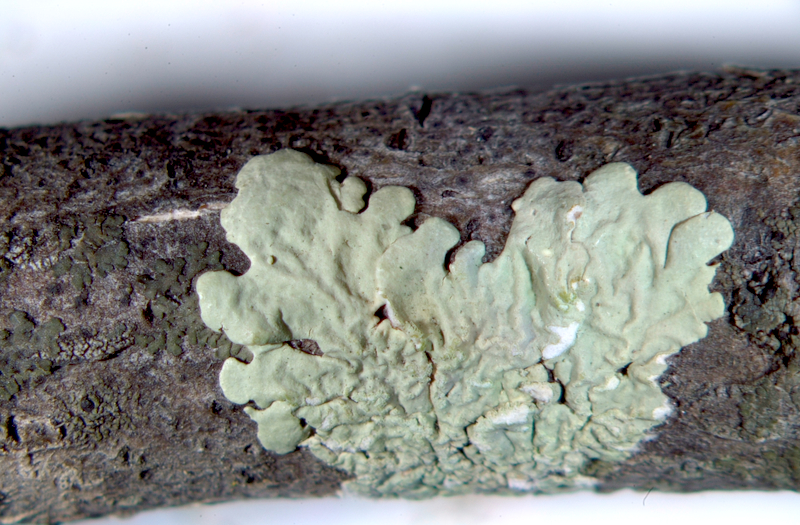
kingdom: Fungi
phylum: Ascomycota
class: Lecanoromycetes
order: Lecanorales
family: Parmeliaceae
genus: Flavoparmelia
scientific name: Flavoparmelia soredians
